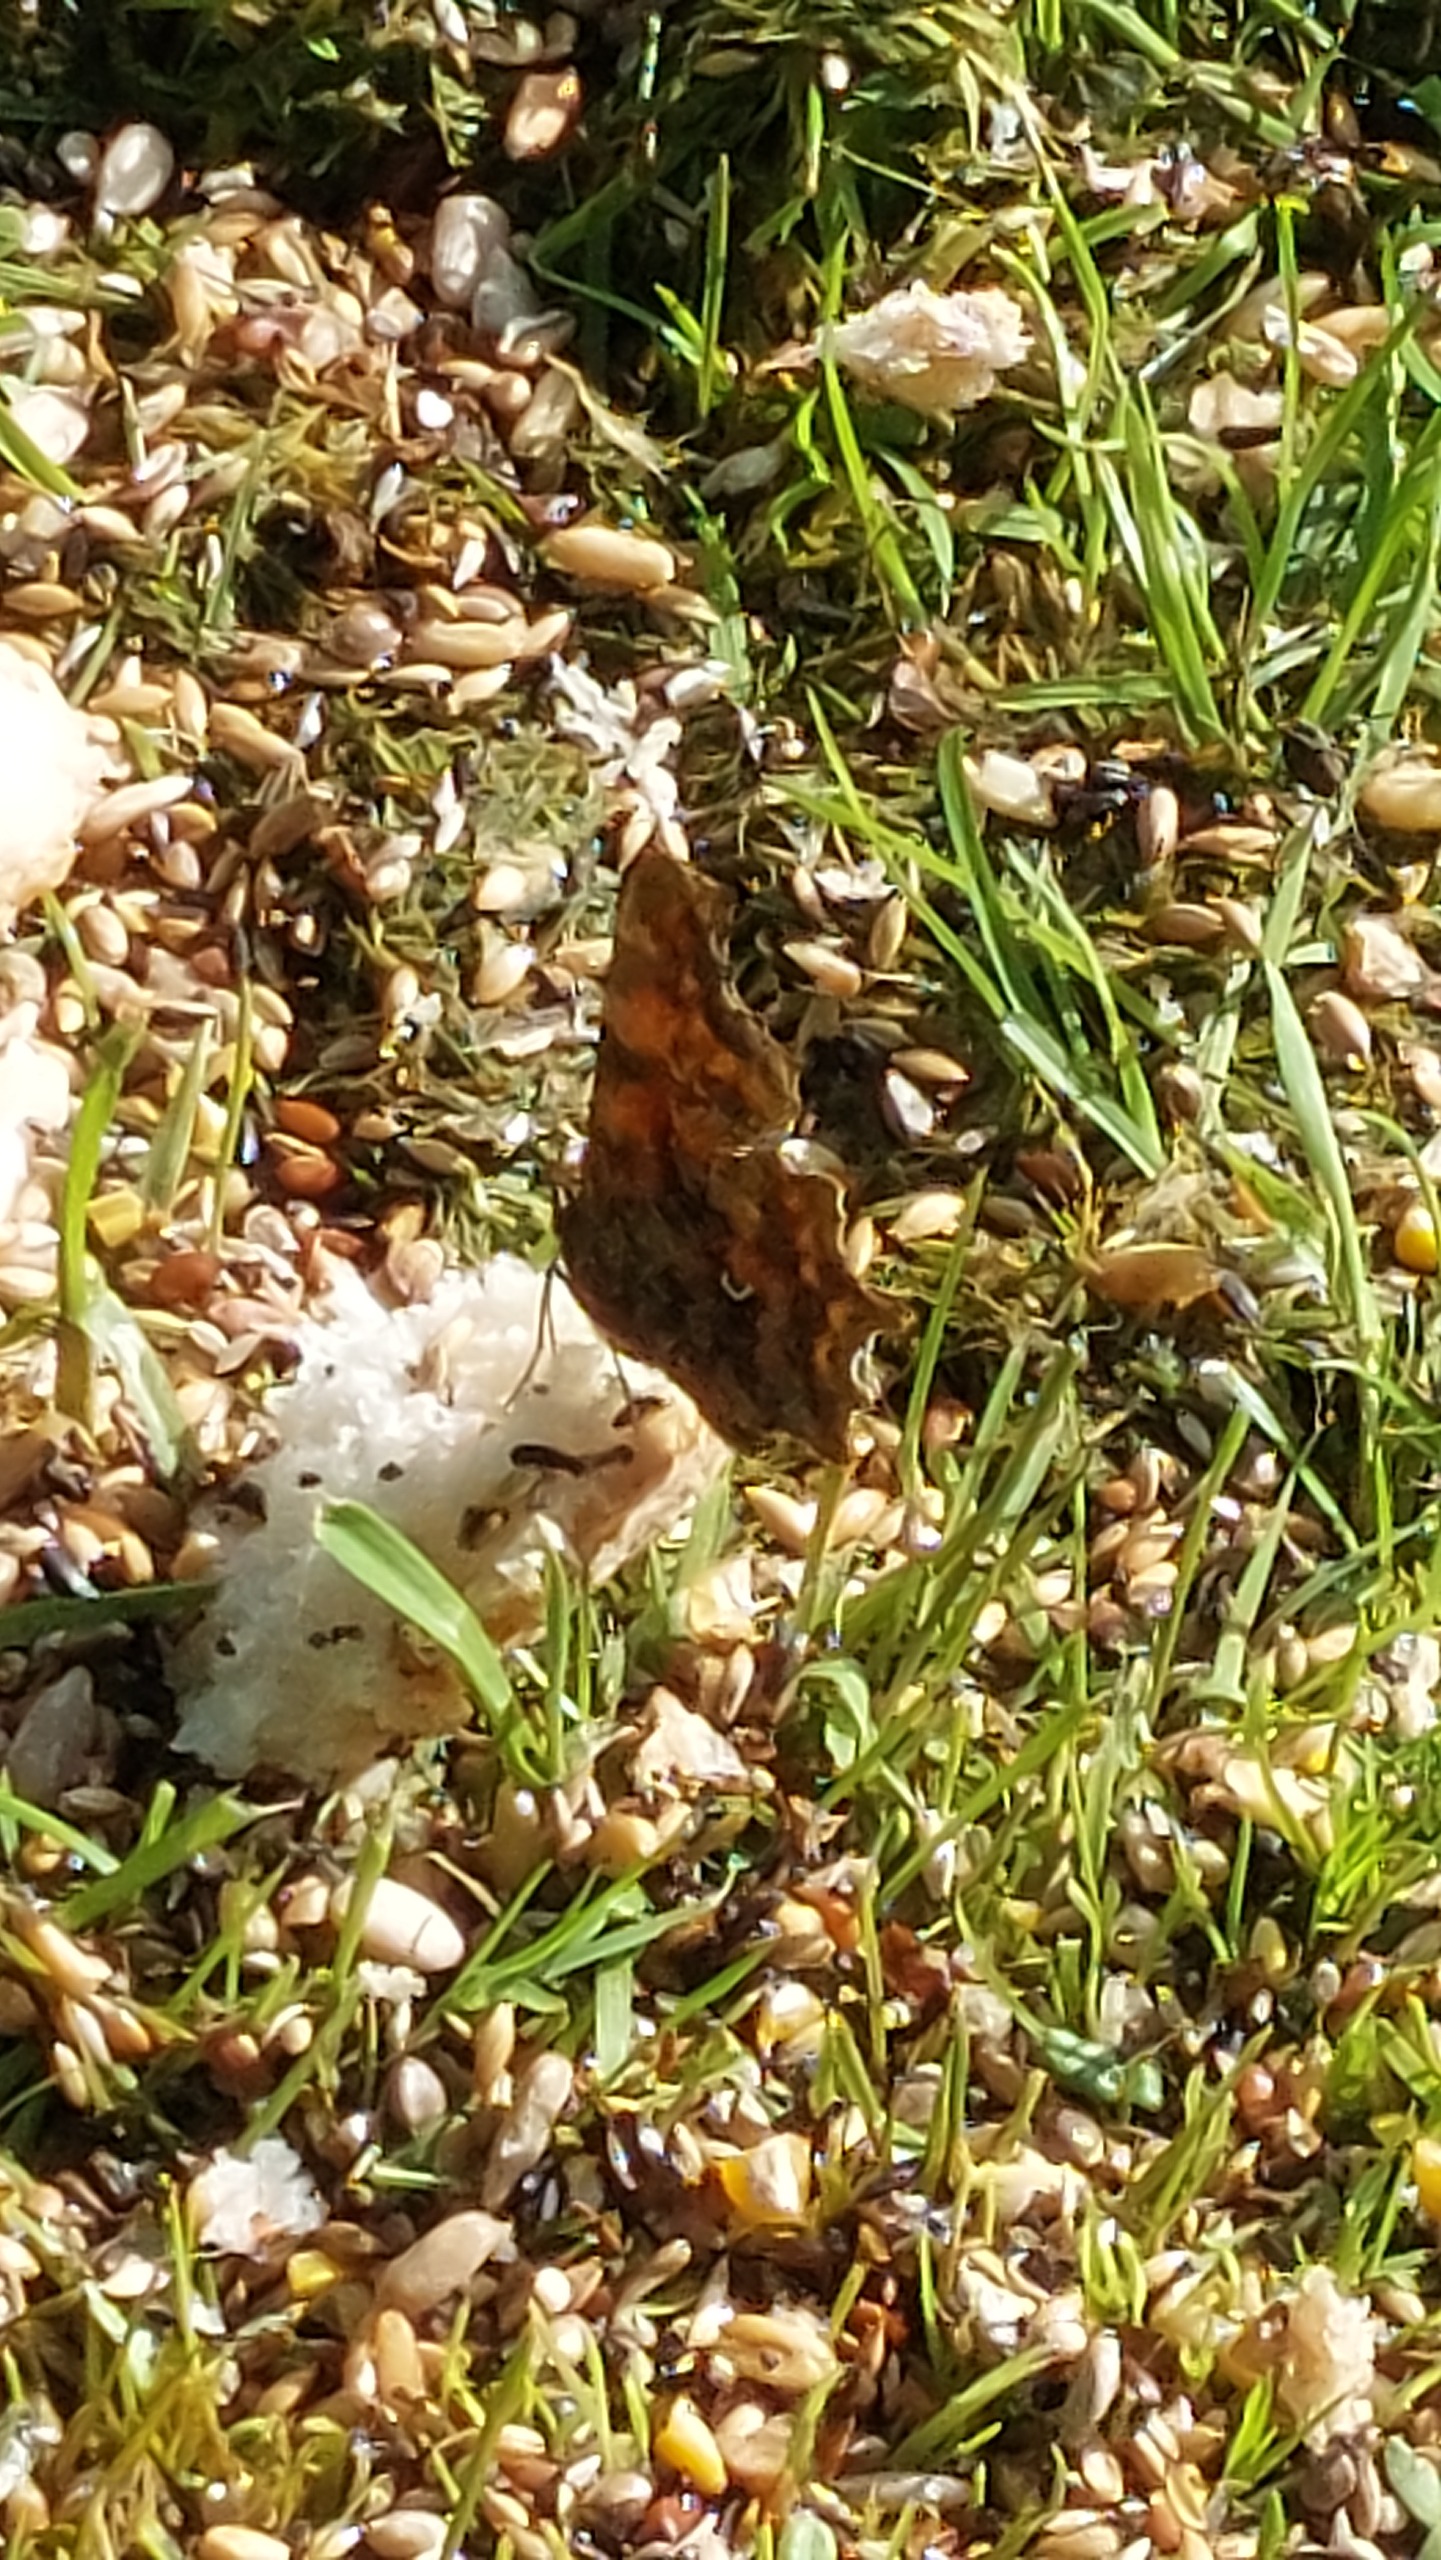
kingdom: Animalia
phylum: Arthropoda
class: Insecta
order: Lepidoptera
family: Nymphalidae
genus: Polygonia
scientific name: Polygonia c-album
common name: Det hvide C
